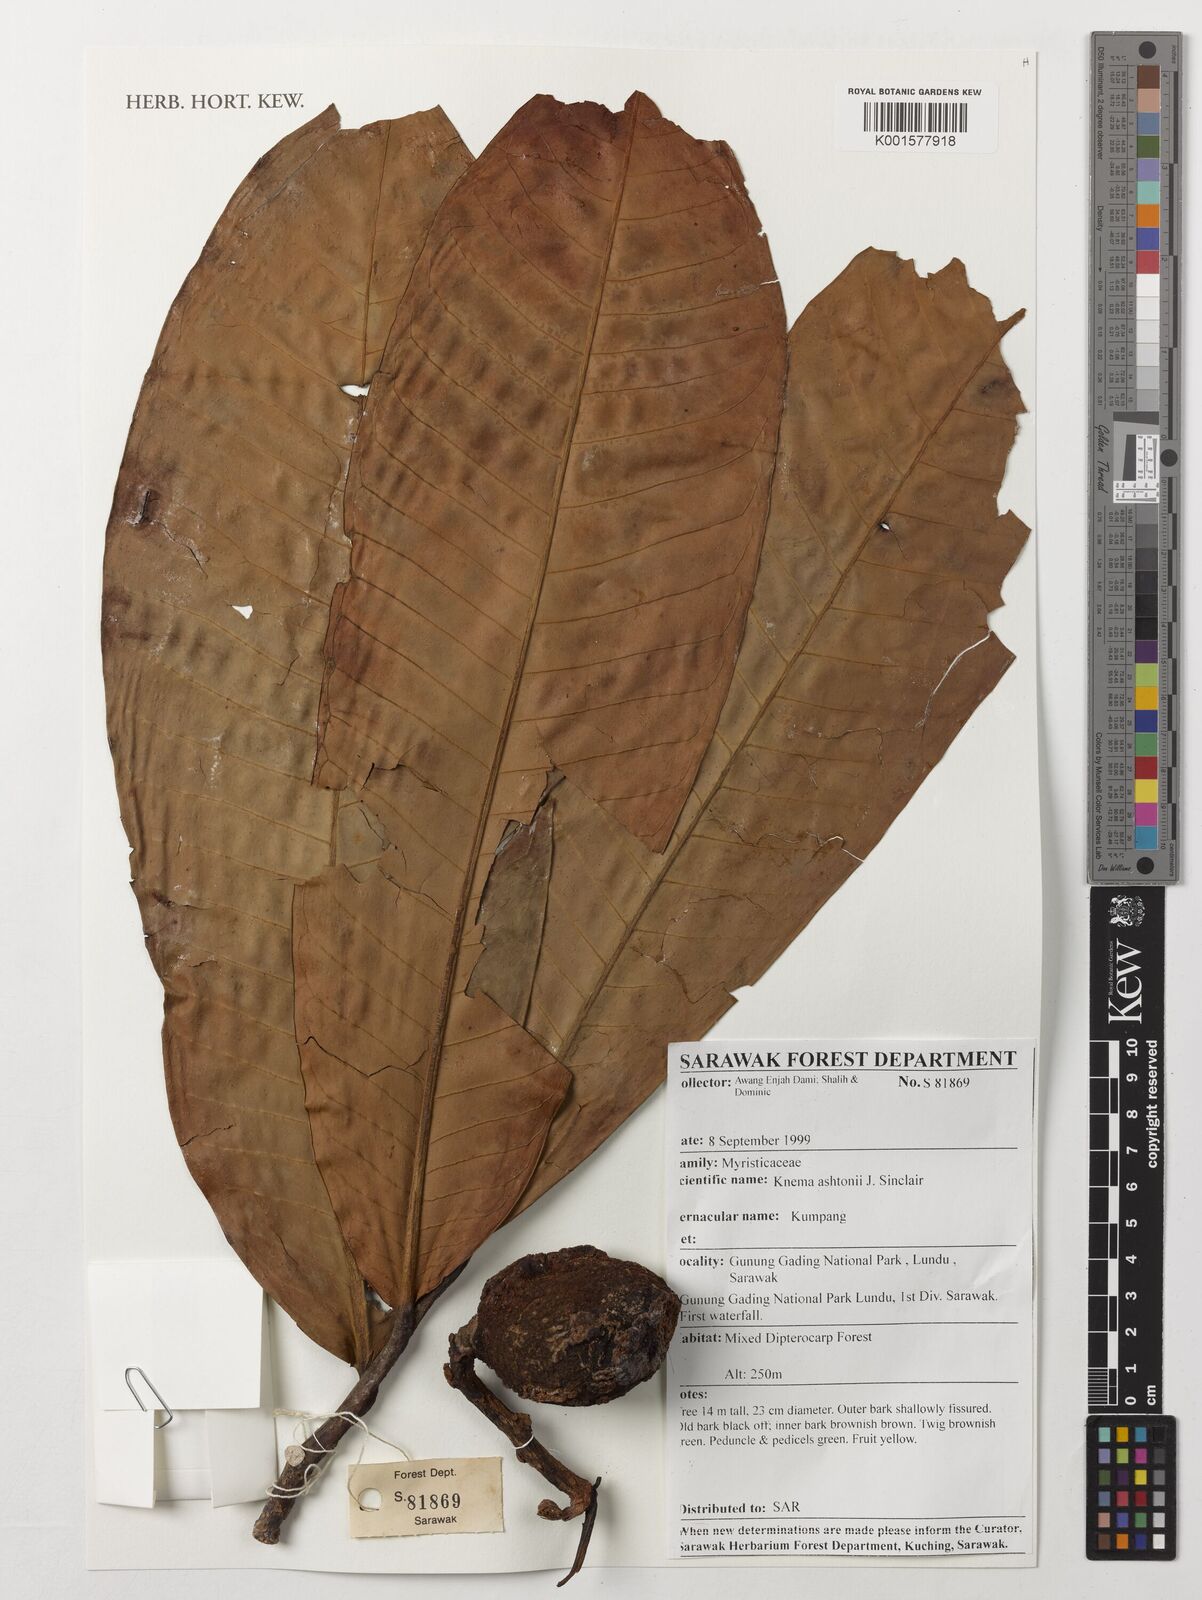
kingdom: Plantae
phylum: Tracheophyta
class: Magnoliopsida
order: Magnoliales
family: Myristicaceae
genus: Knema
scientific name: Knema ashtonii
